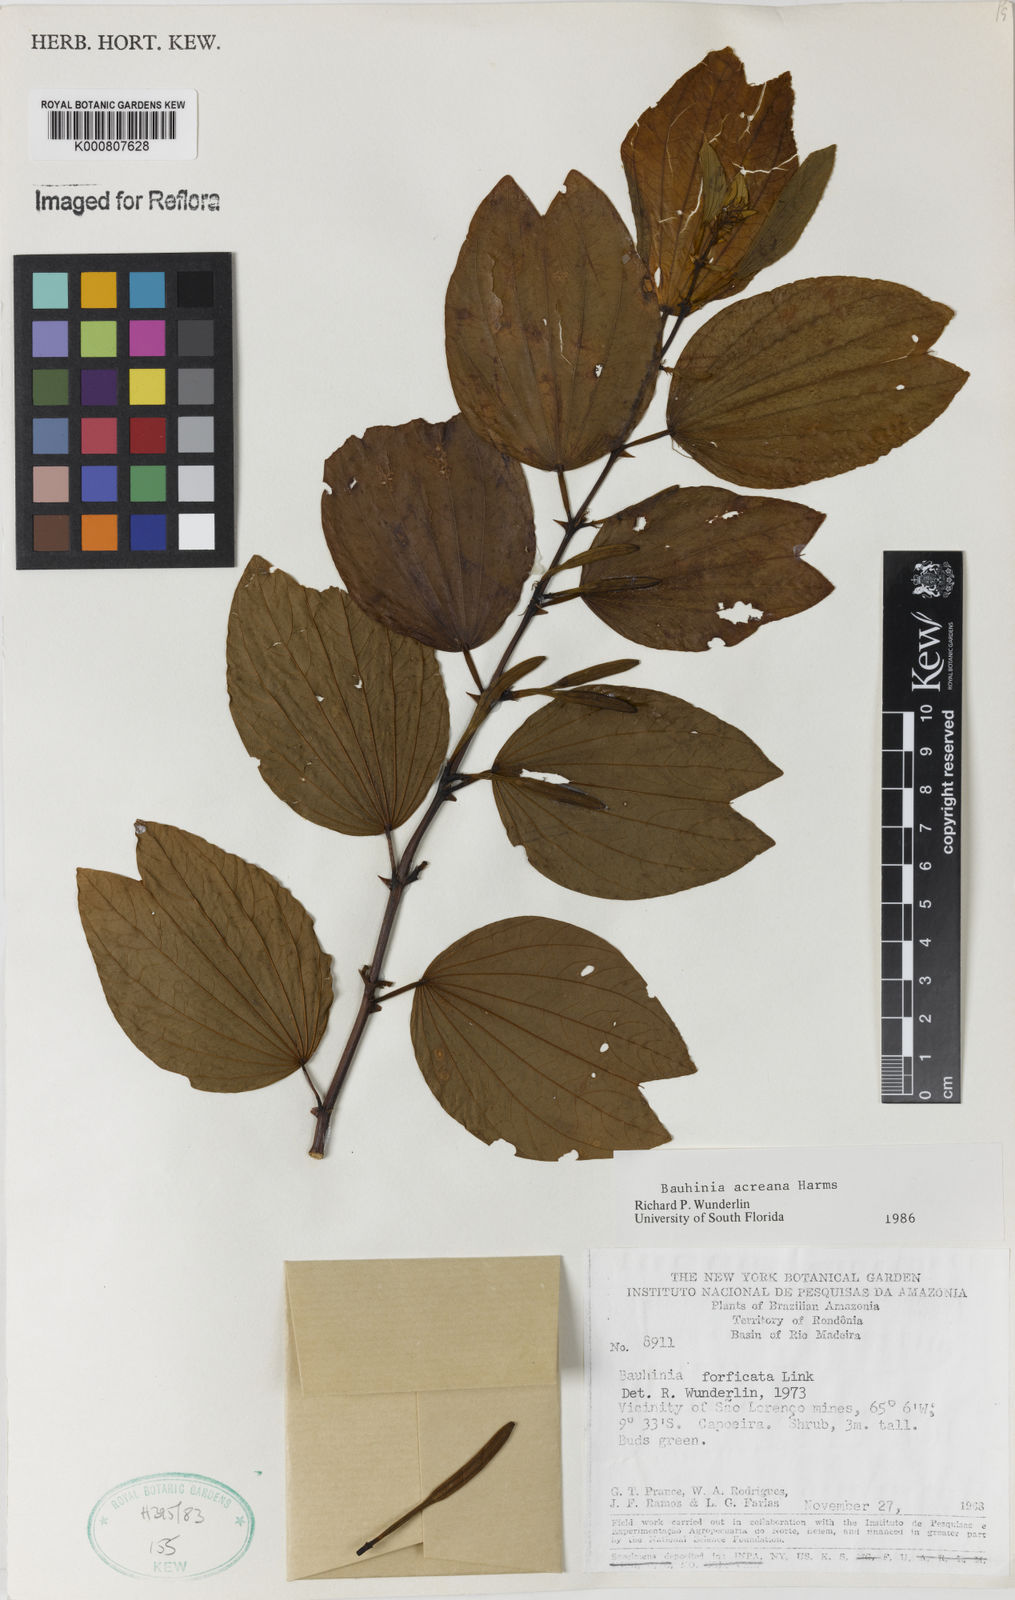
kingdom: Plantae
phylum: Tracheophyta
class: Magnoliopsida
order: Fabales
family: Fabaceae
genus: Bauhinia
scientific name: Bauhinia acreana
